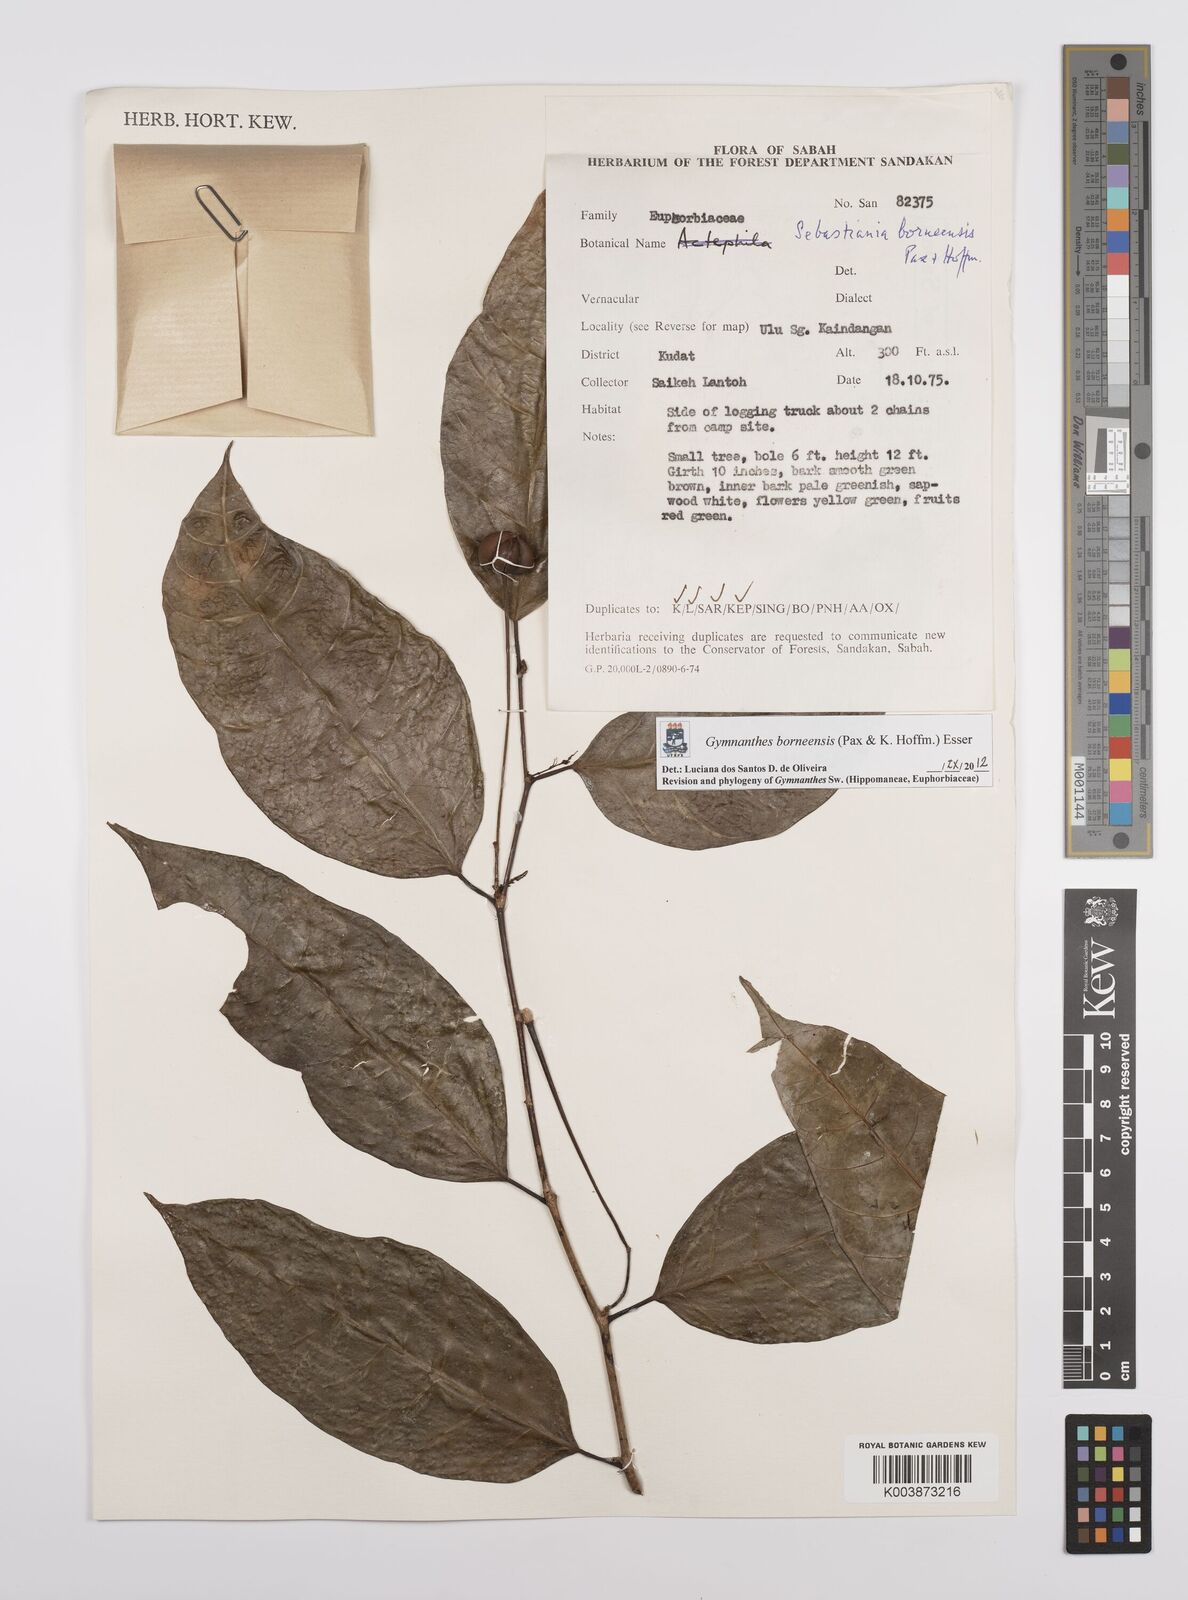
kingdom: Plantae
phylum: Tracheophyta
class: Magnoliopsida
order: Malpighiales
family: Euphorbiaceae
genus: Gymnanthes
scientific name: Gymnanthes borneensis
